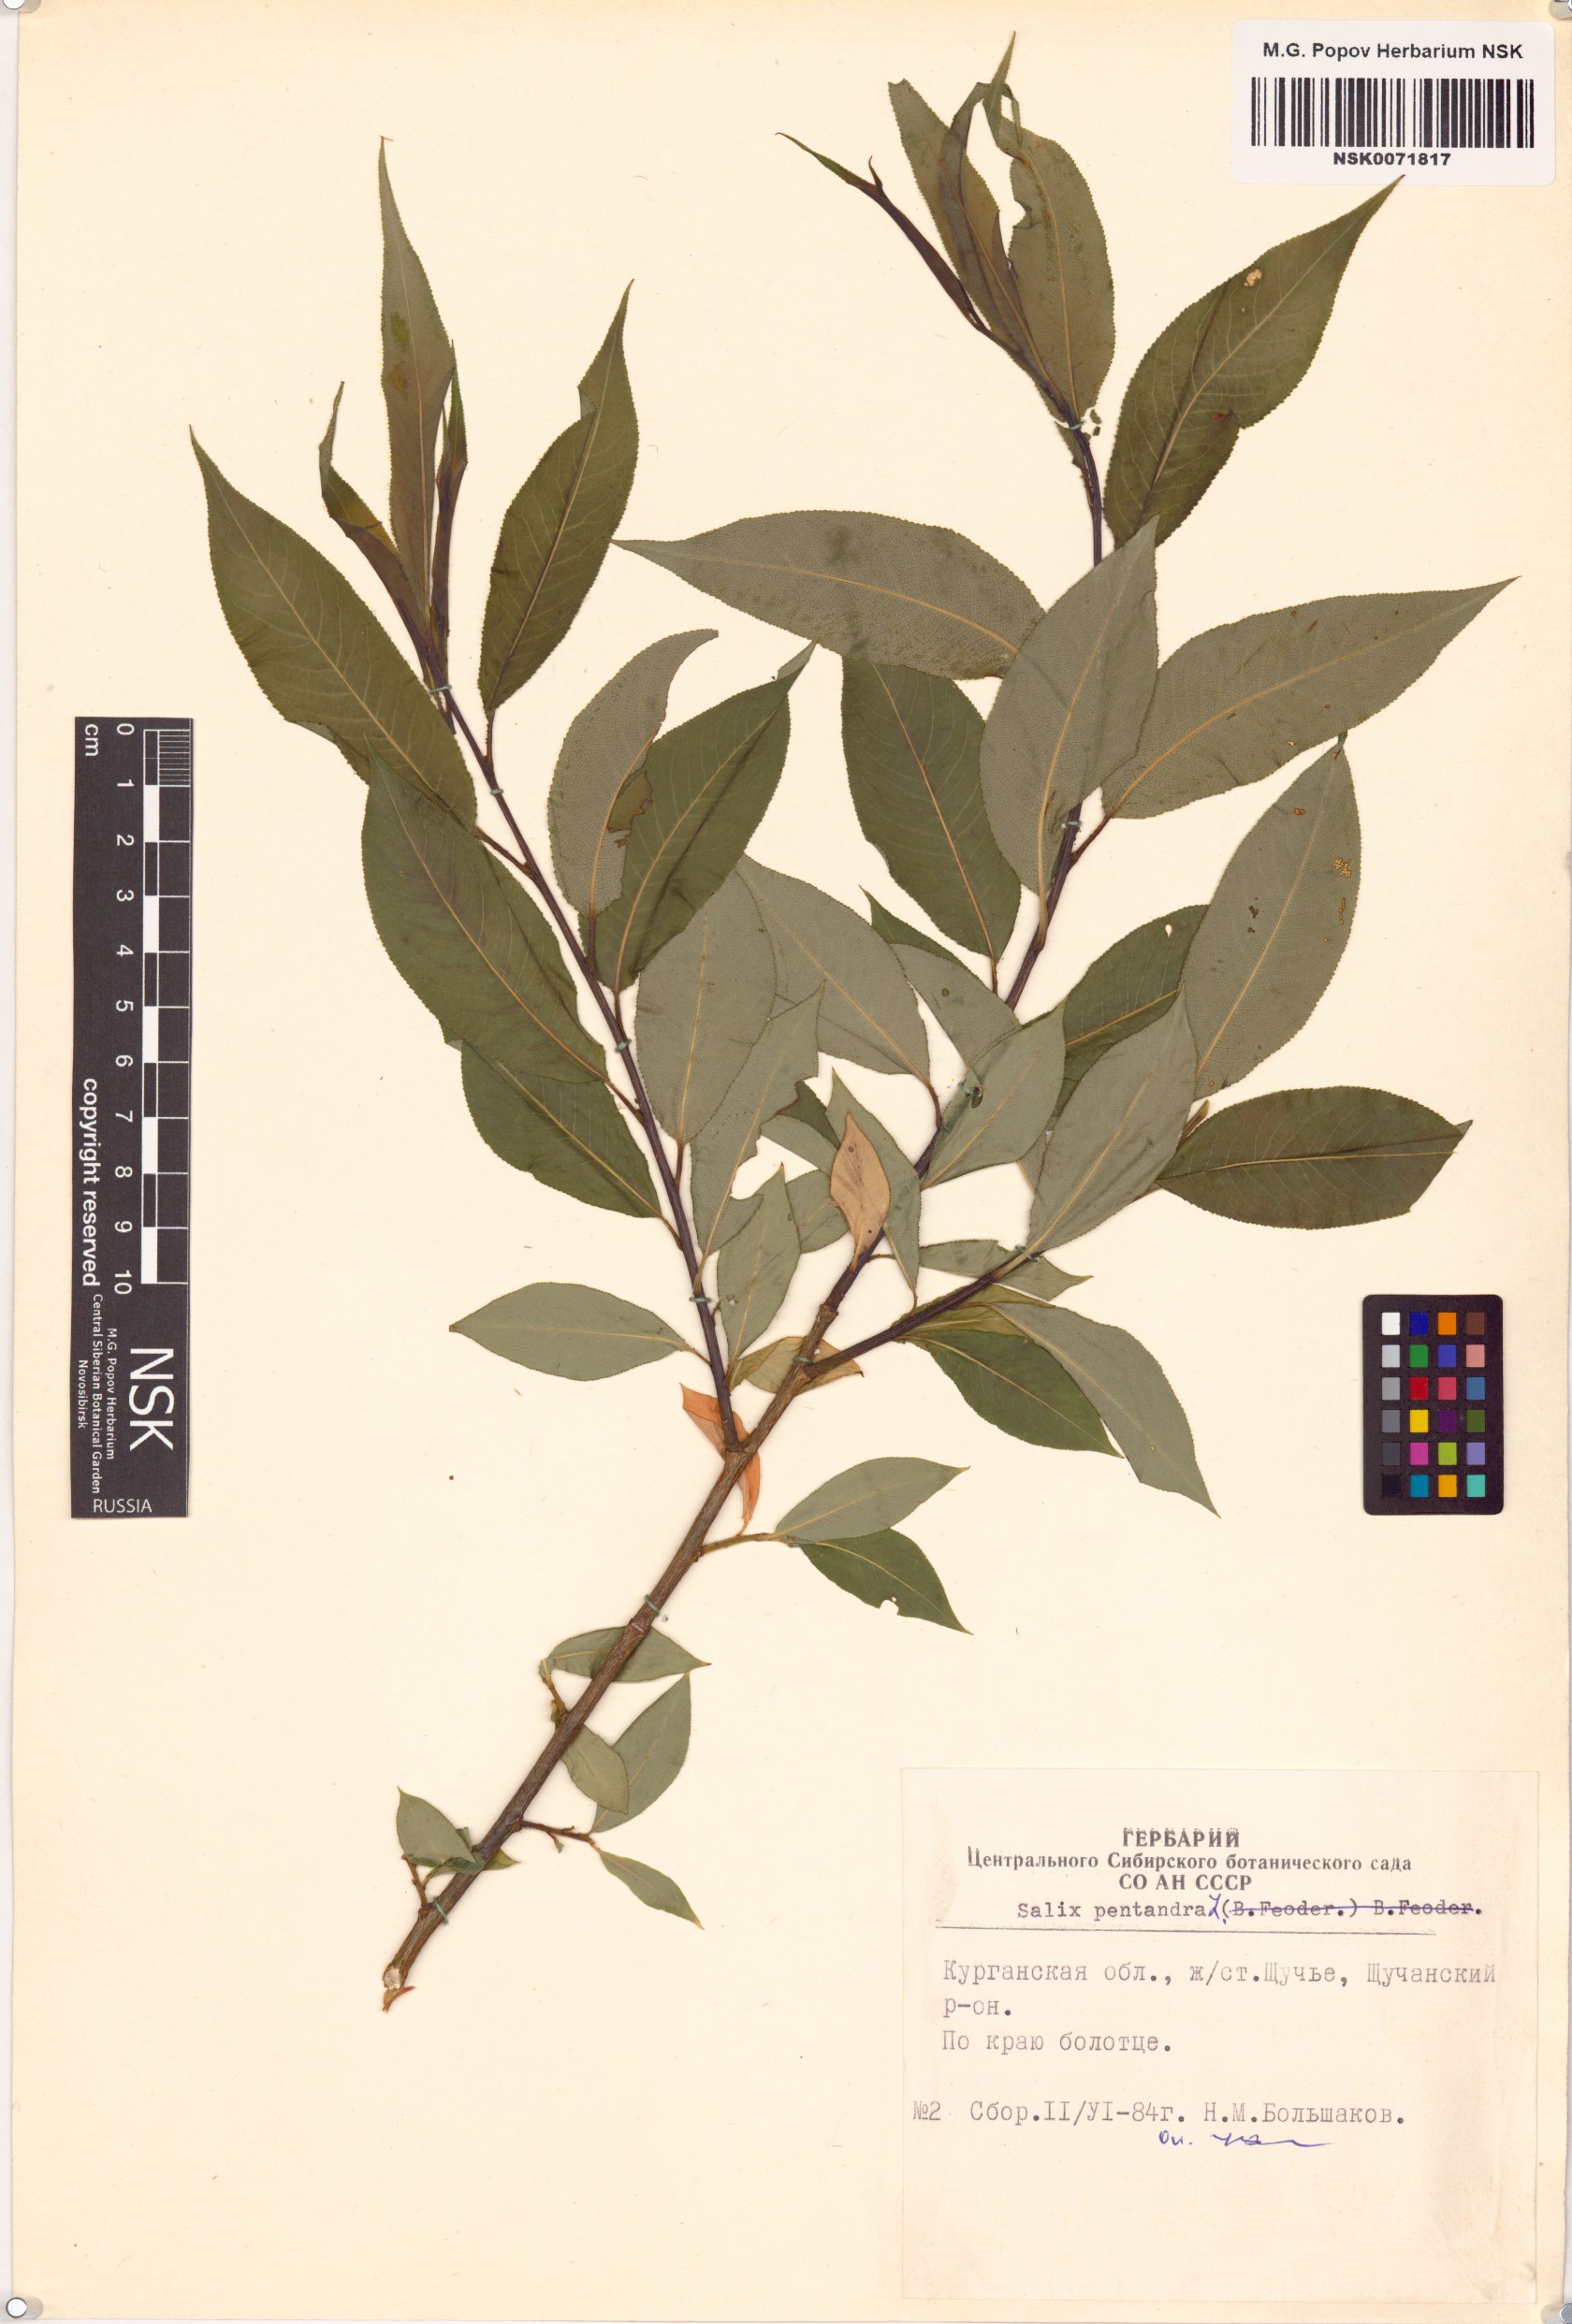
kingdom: Plantae
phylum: Tracheophyta
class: Magnoliopsida
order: Malpighiales
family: Salicaceae
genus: Salix
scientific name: Salix pentandra
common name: Bay willow
